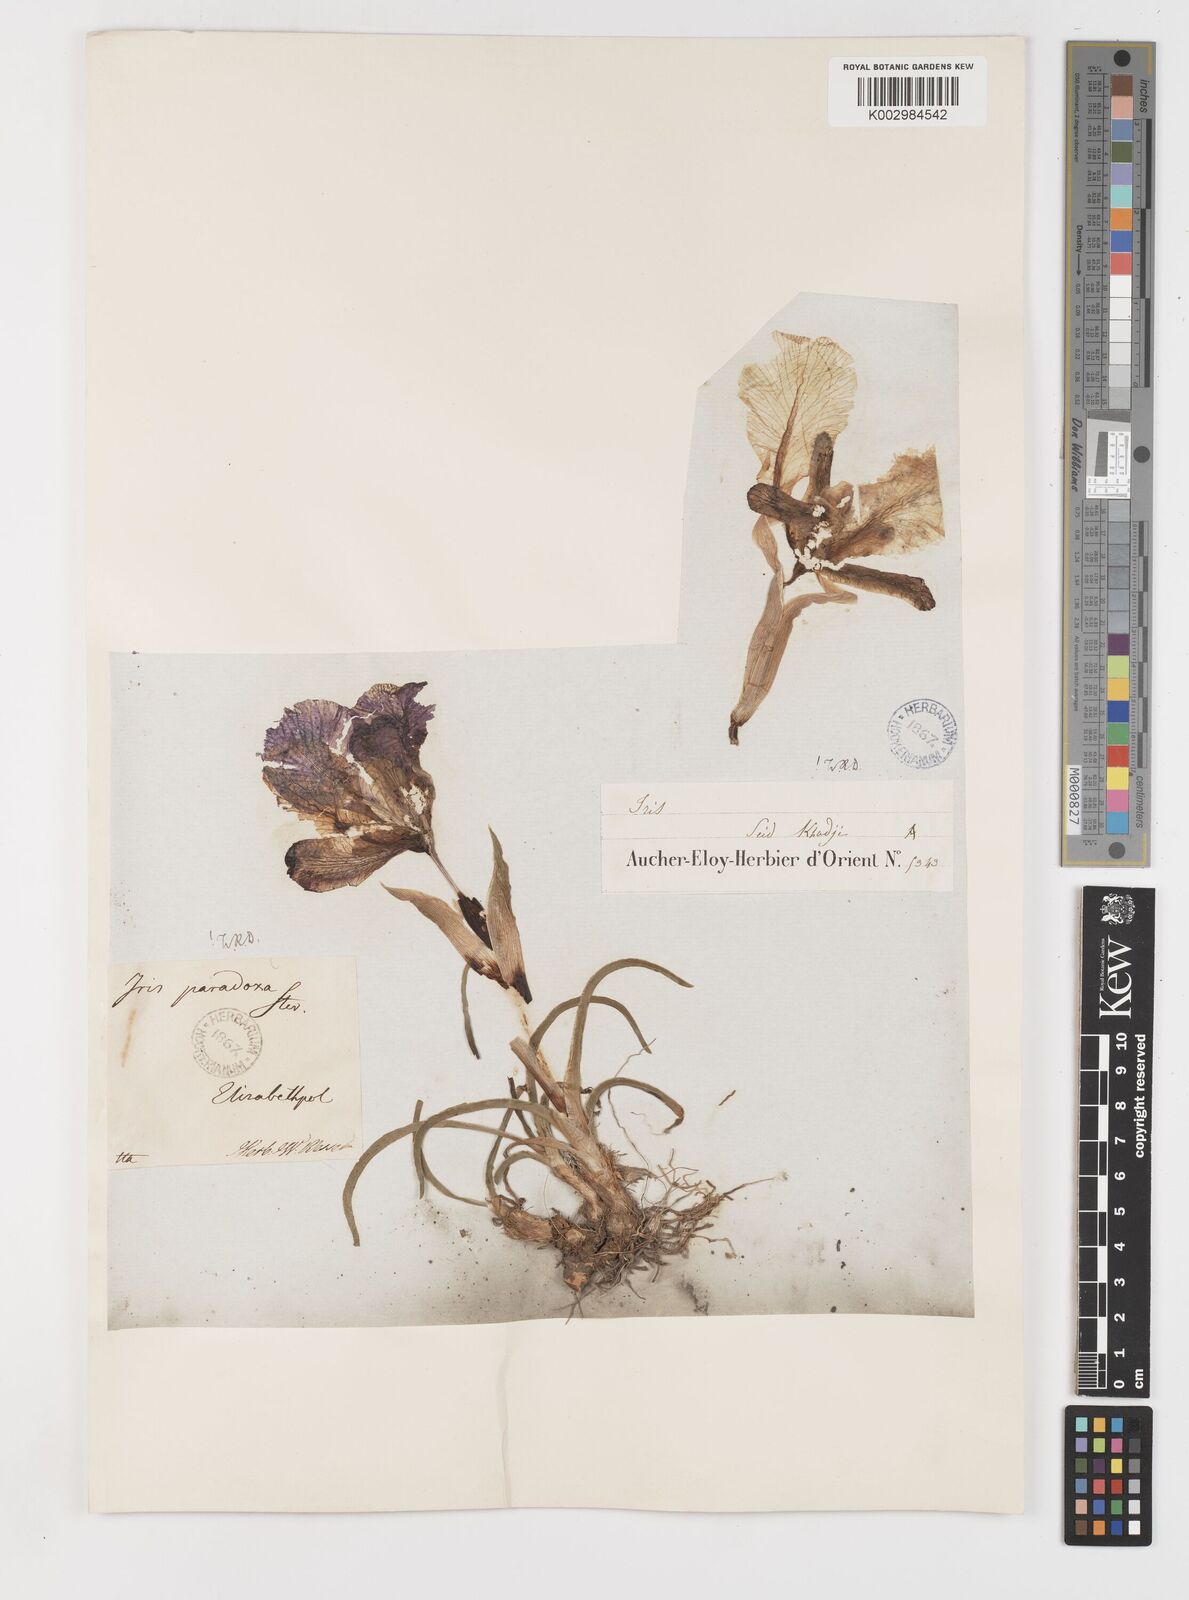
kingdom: Plantae
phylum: Tracheophyta
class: Liliopsida
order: Asparagales
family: Iridaceae
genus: Iris
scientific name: Iris paradoxa
